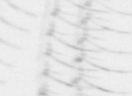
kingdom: Animalia
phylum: Arthropoda
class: Maxillopoda
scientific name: Maxillopoda
